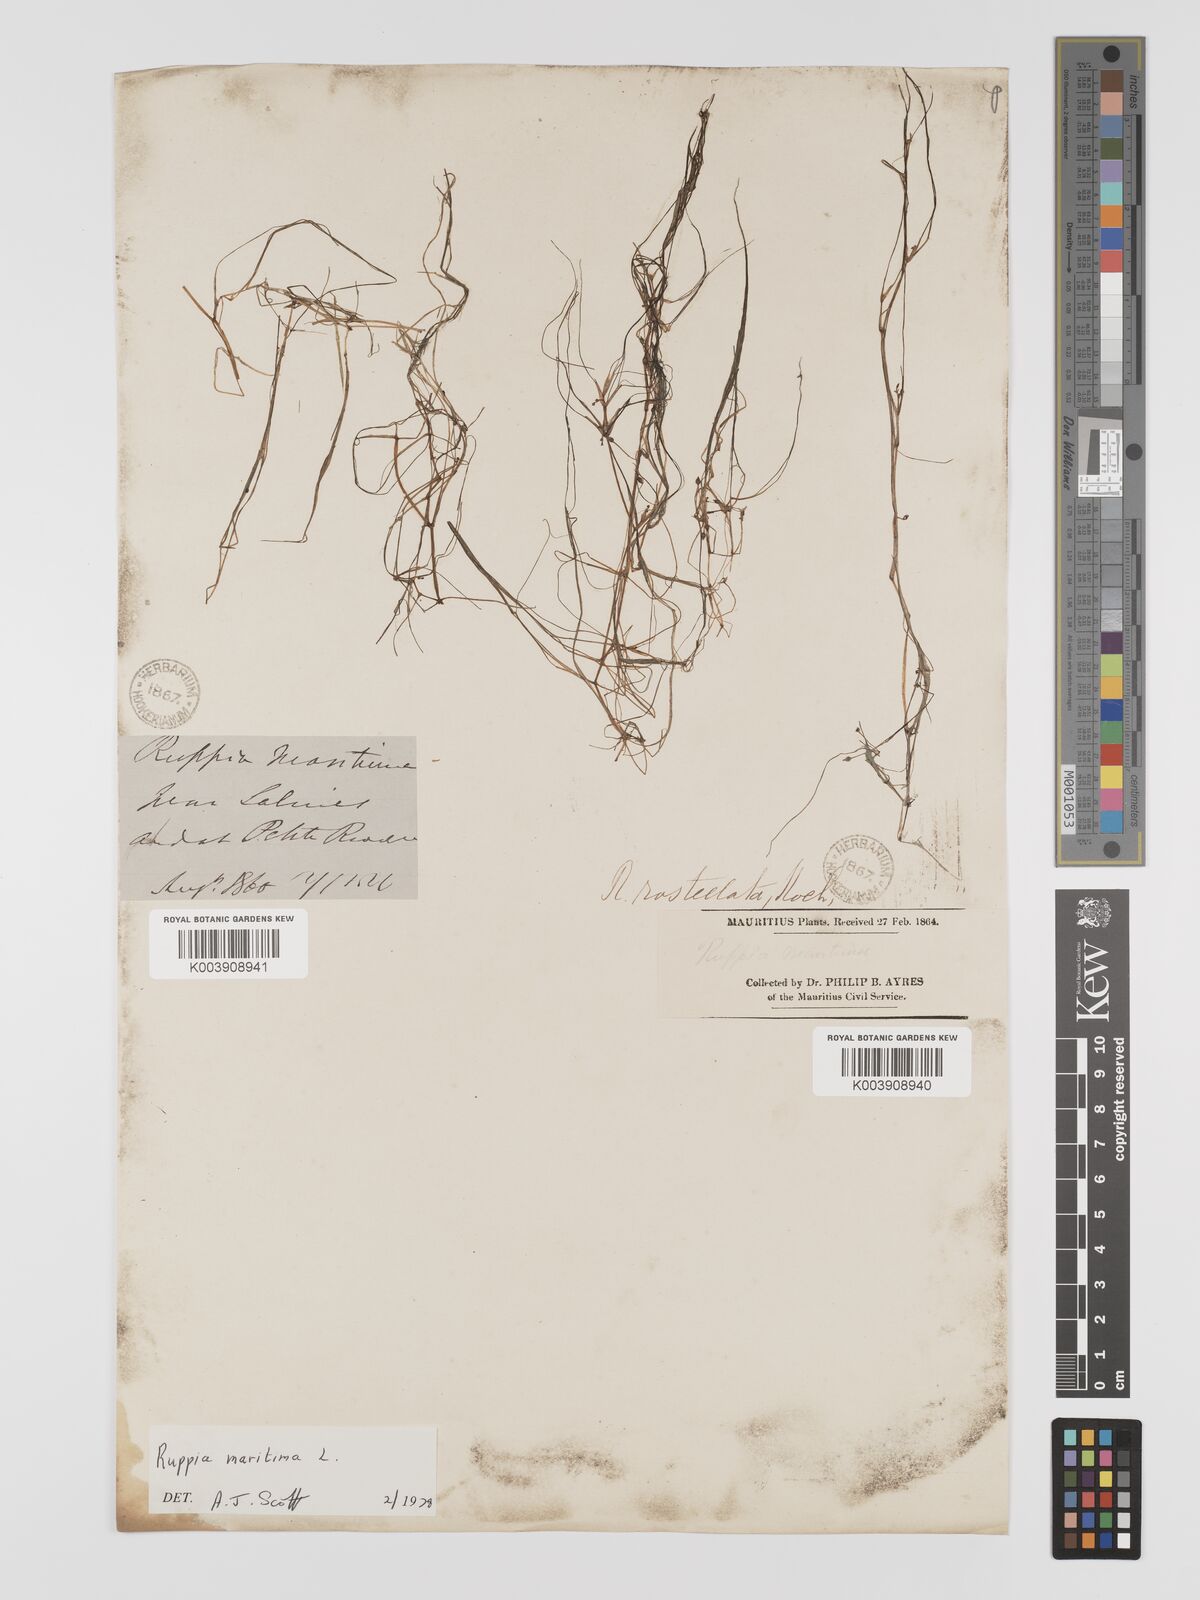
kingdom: Plantae
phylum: Tracheophyta
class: Liliopsida
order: Alismatales
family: Ruppiaceae
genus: Ruppia
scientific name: Ruppia maritima
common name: Beaked tasselweed
